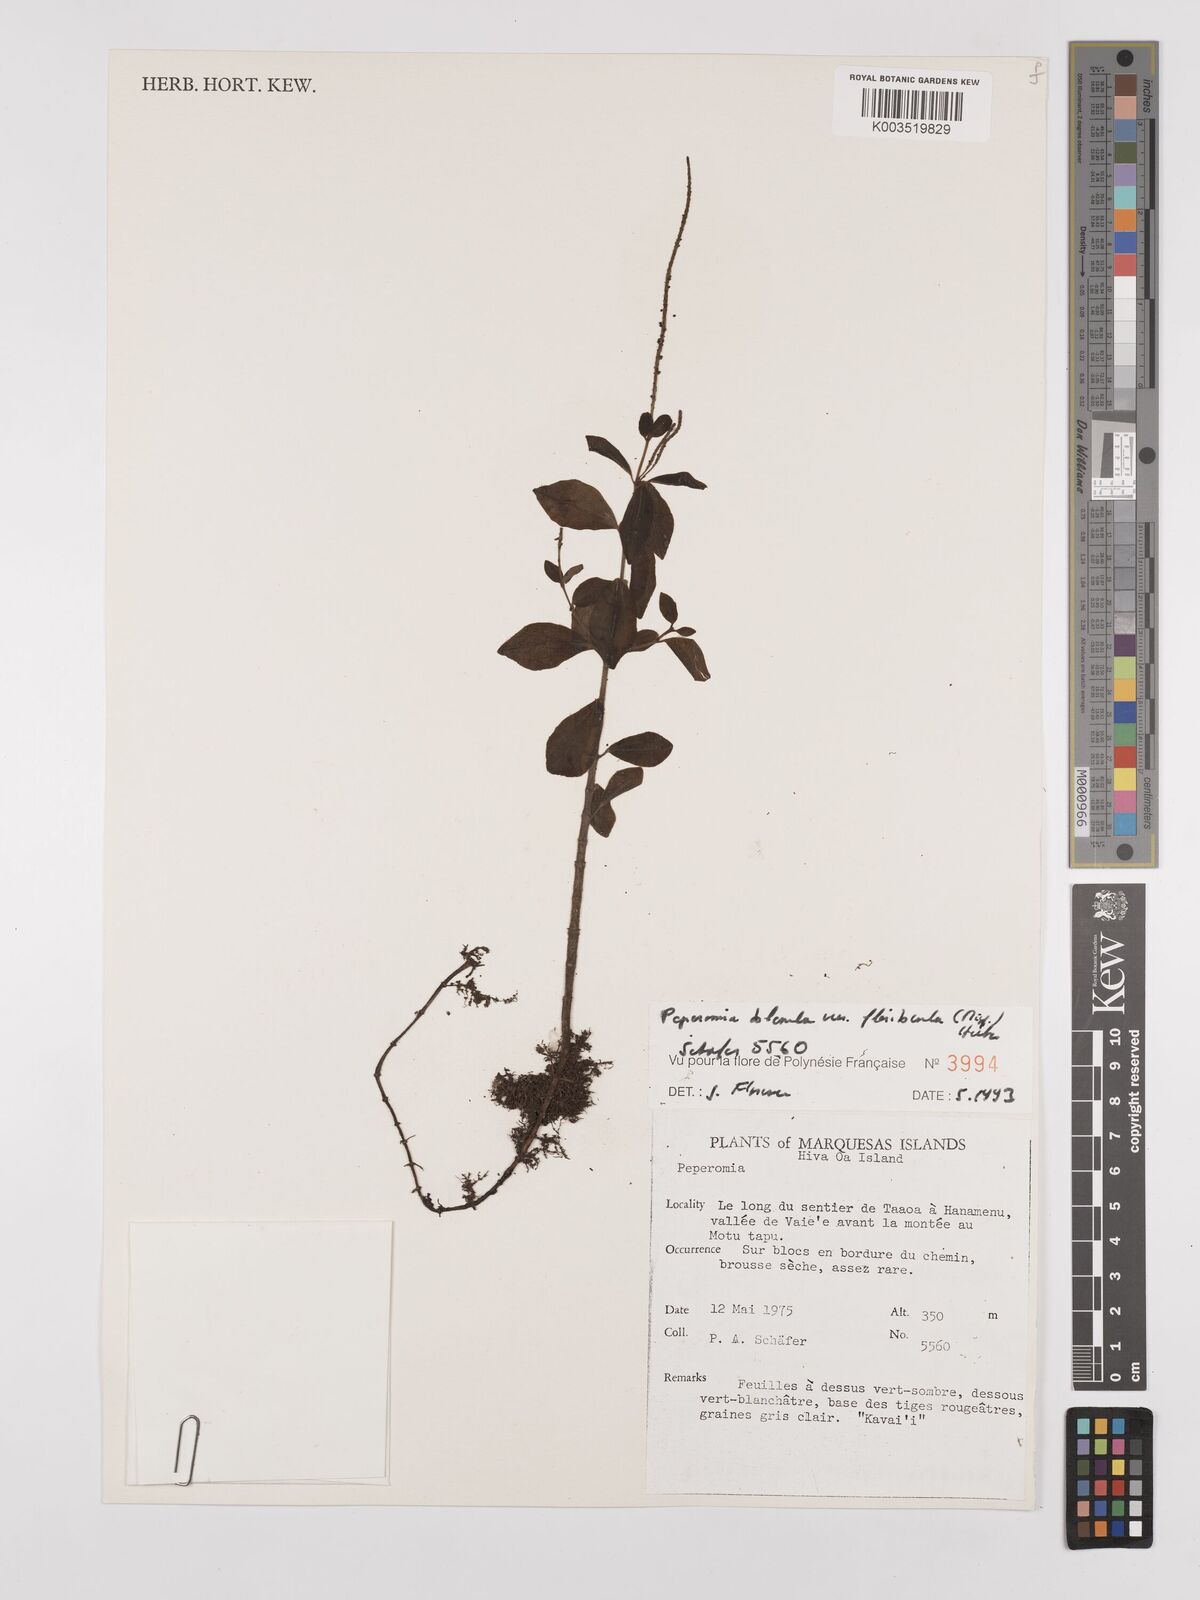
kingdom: Plantae
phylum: Tracheophyta
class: Magnoliopsida
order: Piperales
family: Piperaceae
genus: Peperomia
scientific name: Peperomia leptostachya
